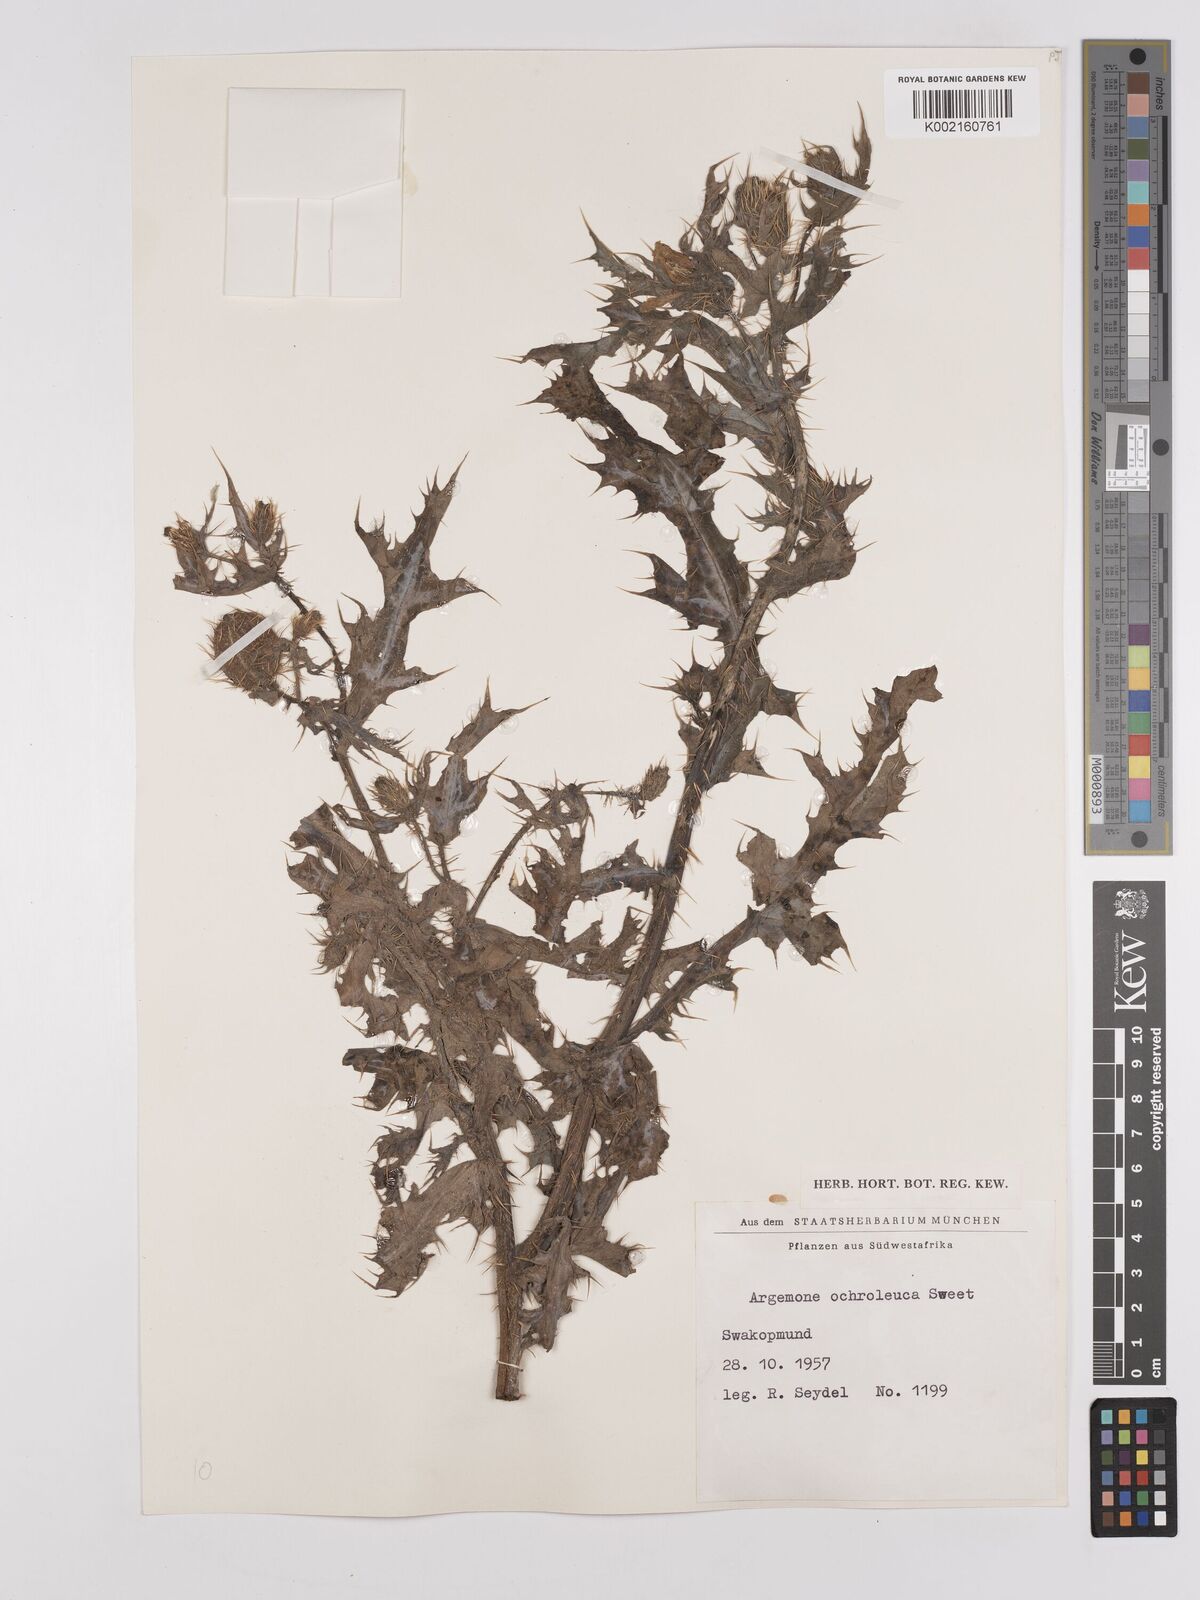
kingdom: Plantae
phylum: Tracheophyta
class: Magnoliopsida
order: Ranunculales
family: Papaveraceae
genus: Argemone
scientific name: Argemone mexicana
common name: Mexican poppy
